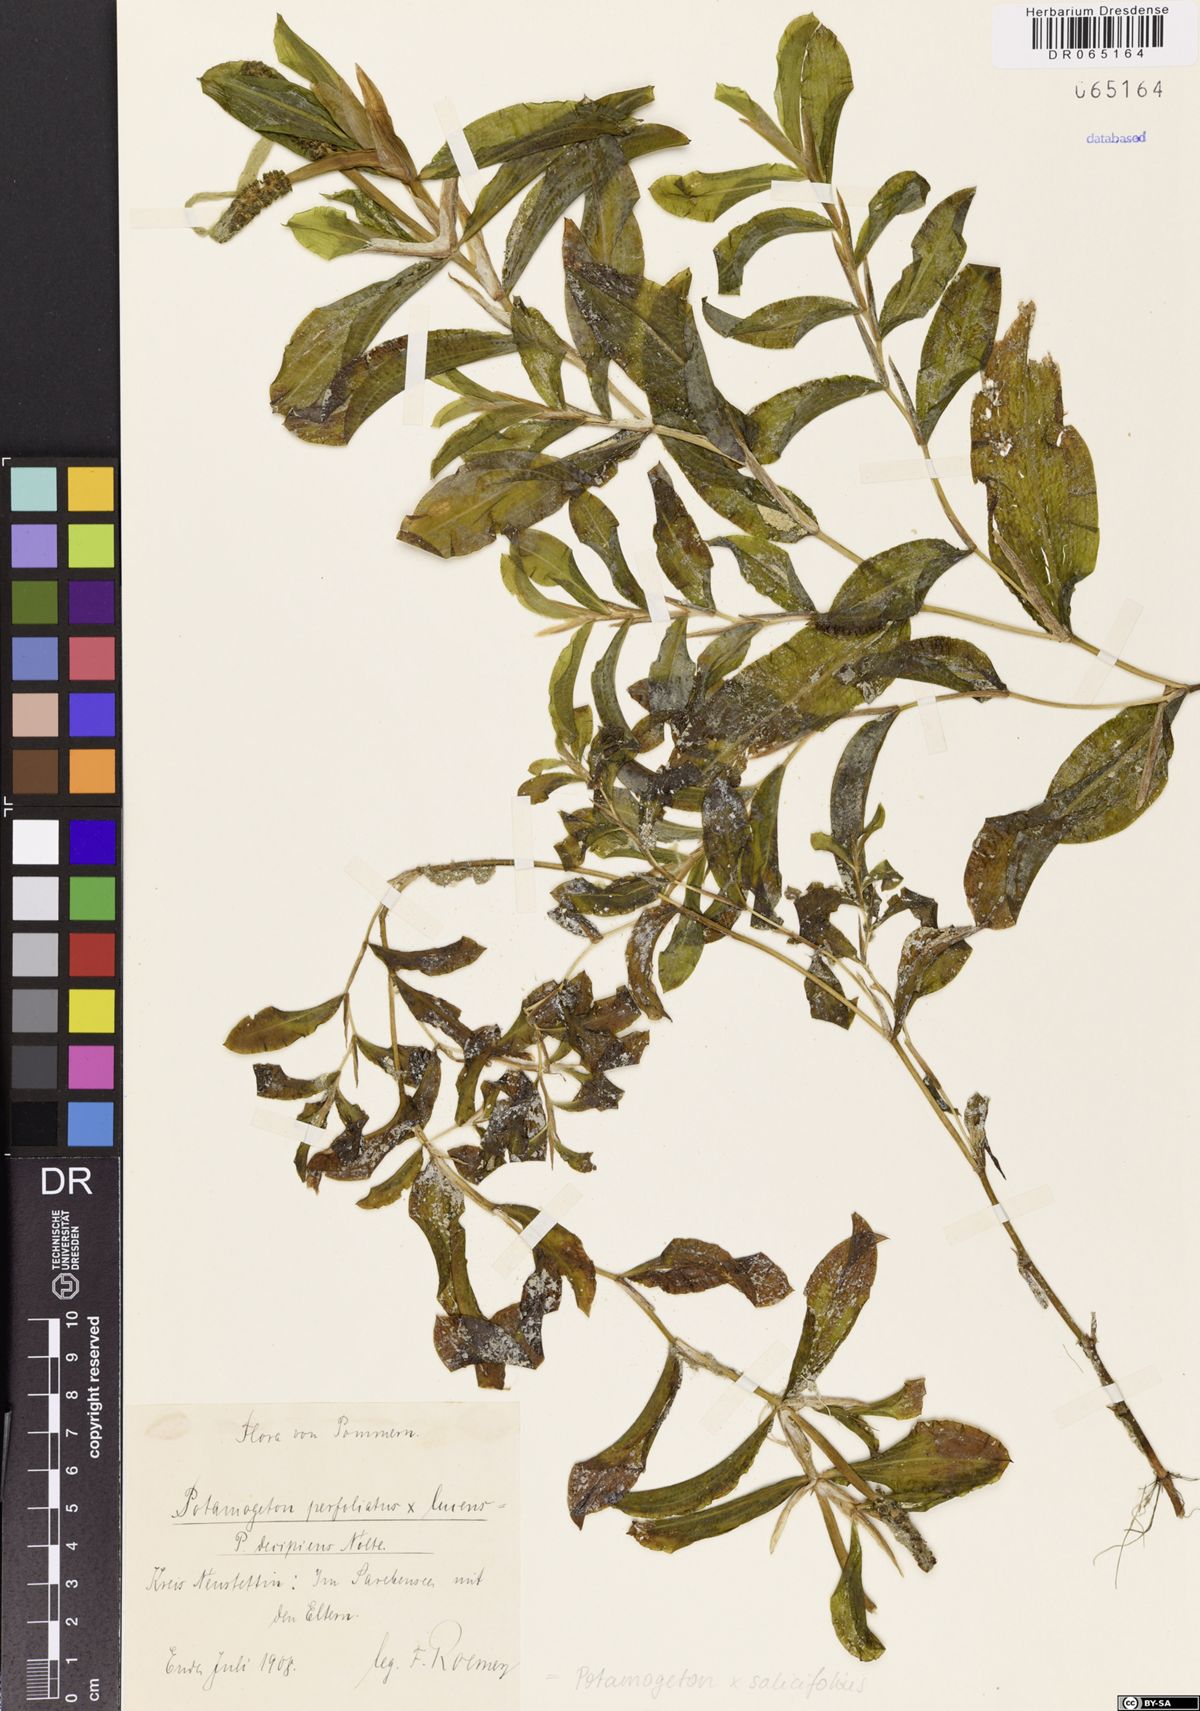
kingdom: Plantae
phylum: Tracheophyta
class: Liliopsida
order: Alismatales
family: Potamogetonaceae
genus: Potamogeton
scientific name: Potamogeton salicifolius
